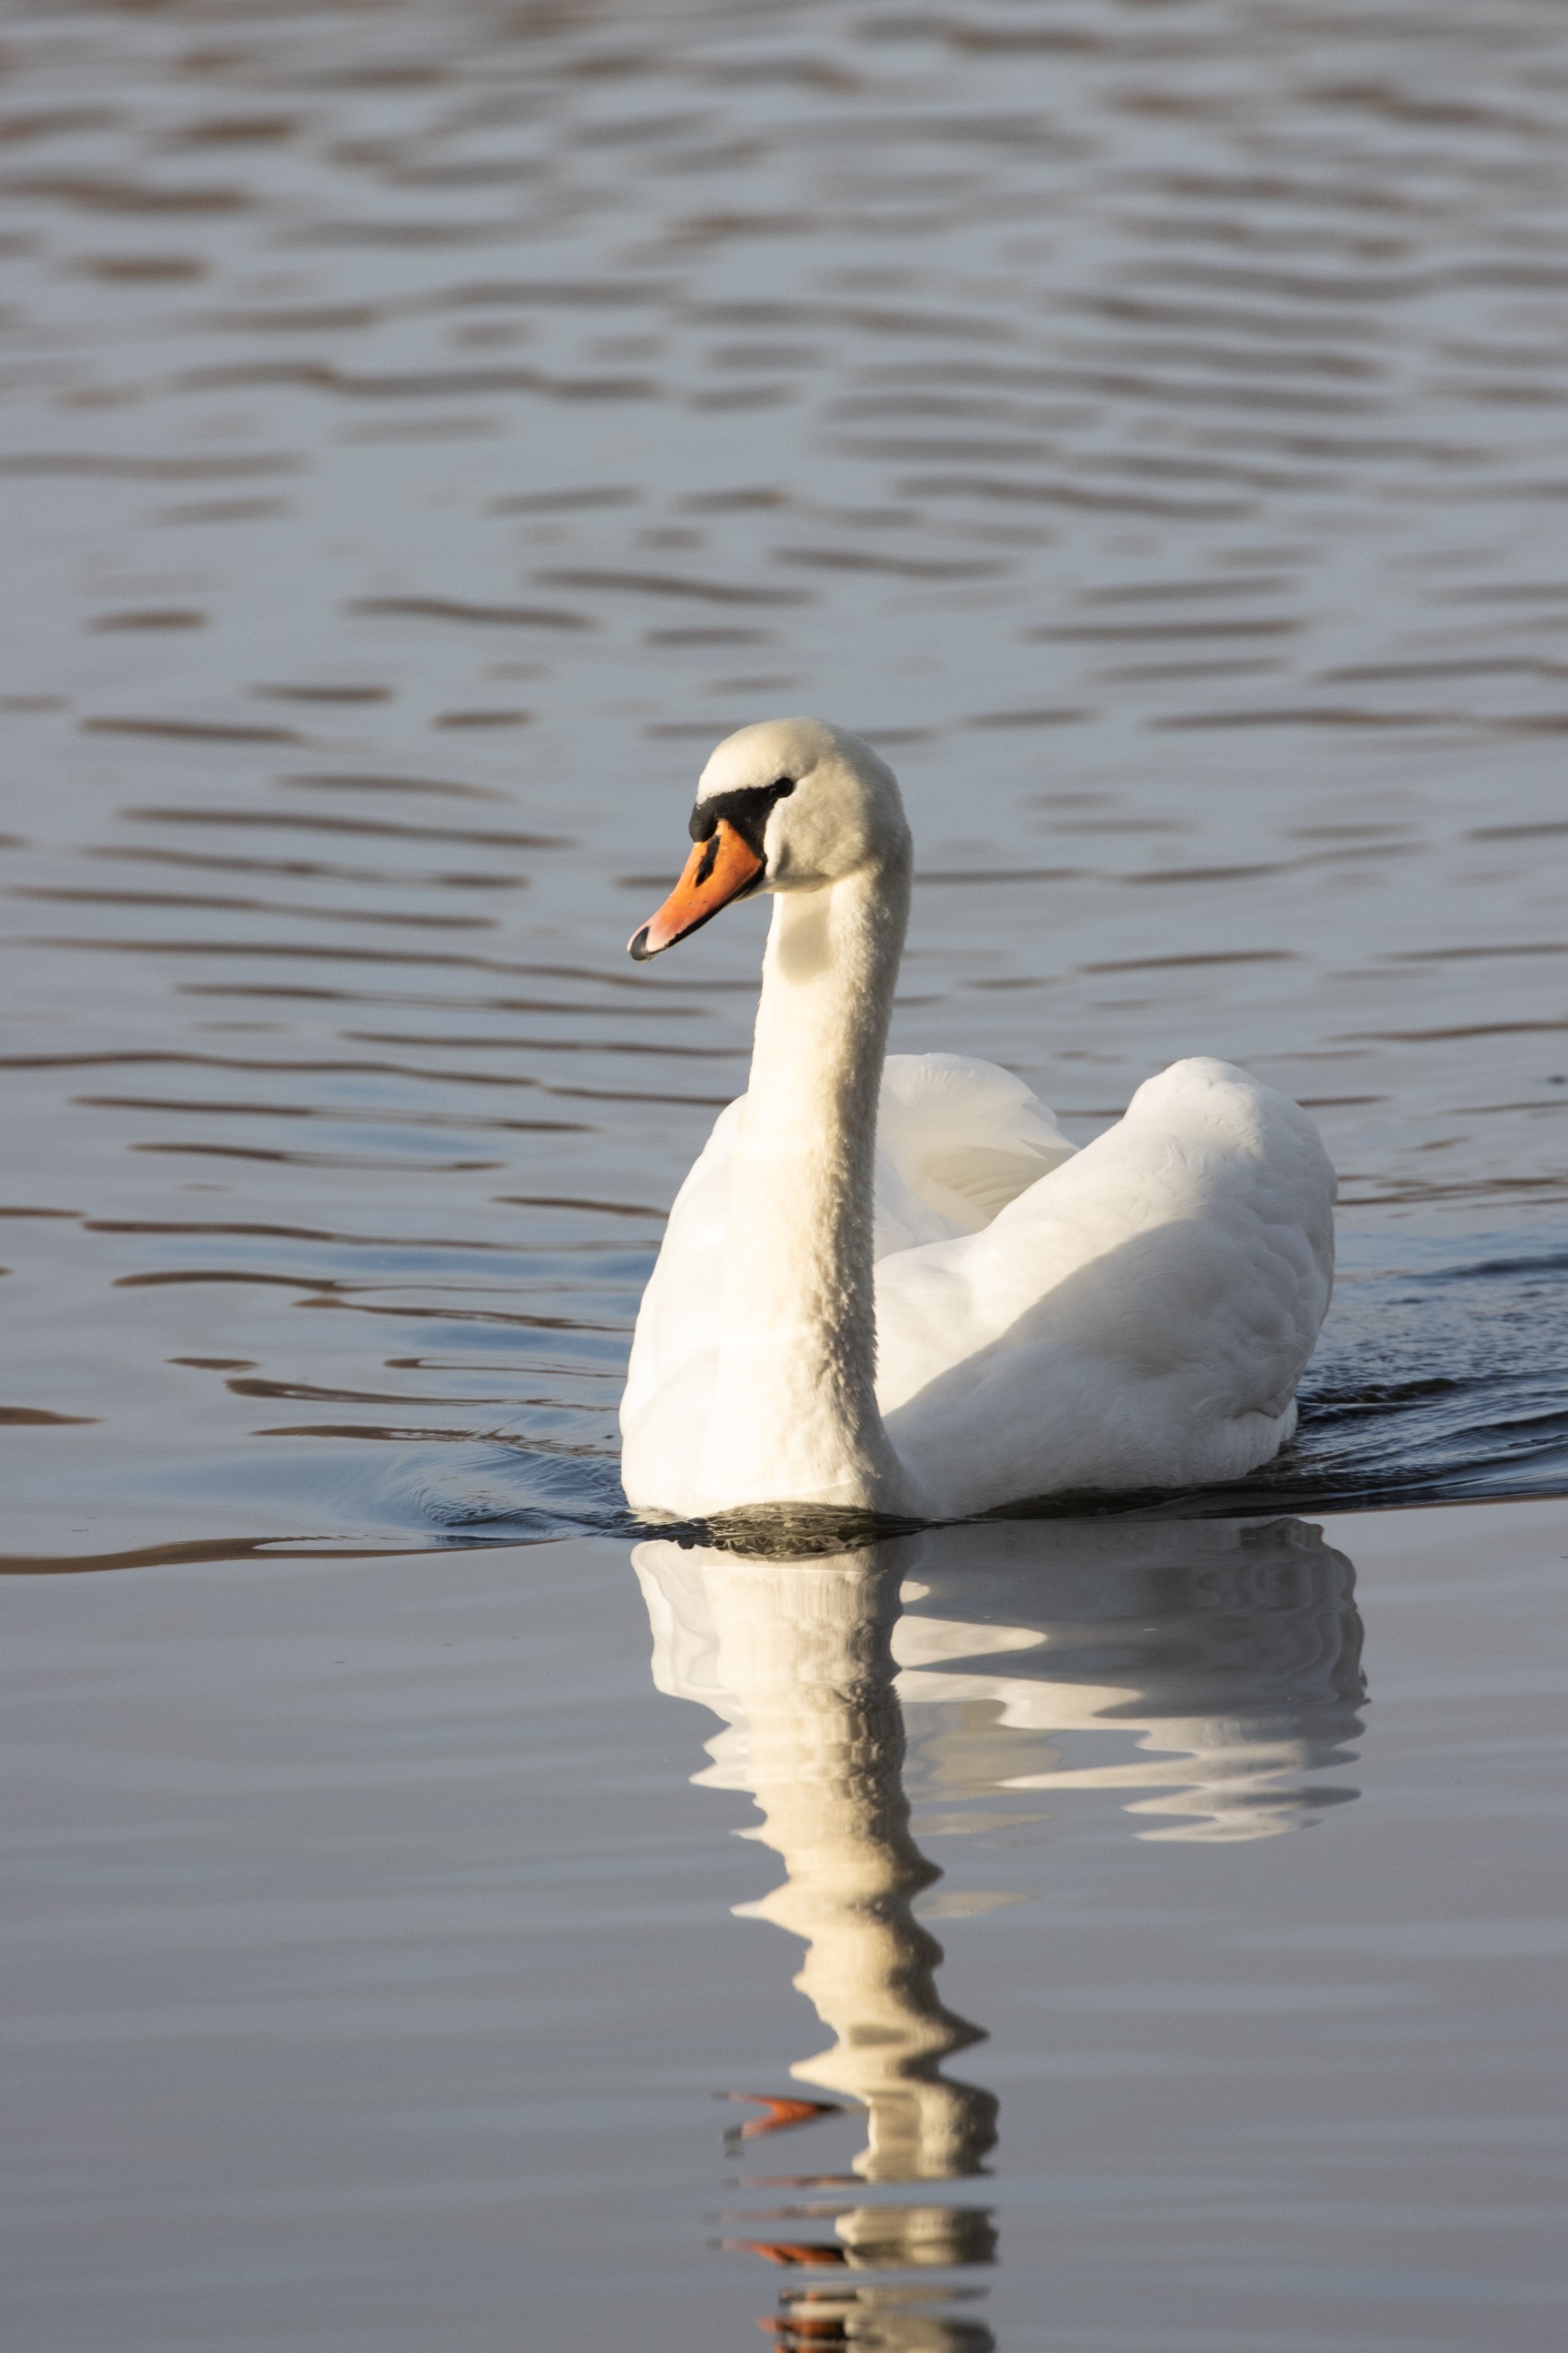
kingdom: Animalia
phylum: Chordata
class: Aves
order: Anseriformes
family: Anatidae
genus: Cygnus
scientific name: Cygnus olor
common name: Knopsvane
